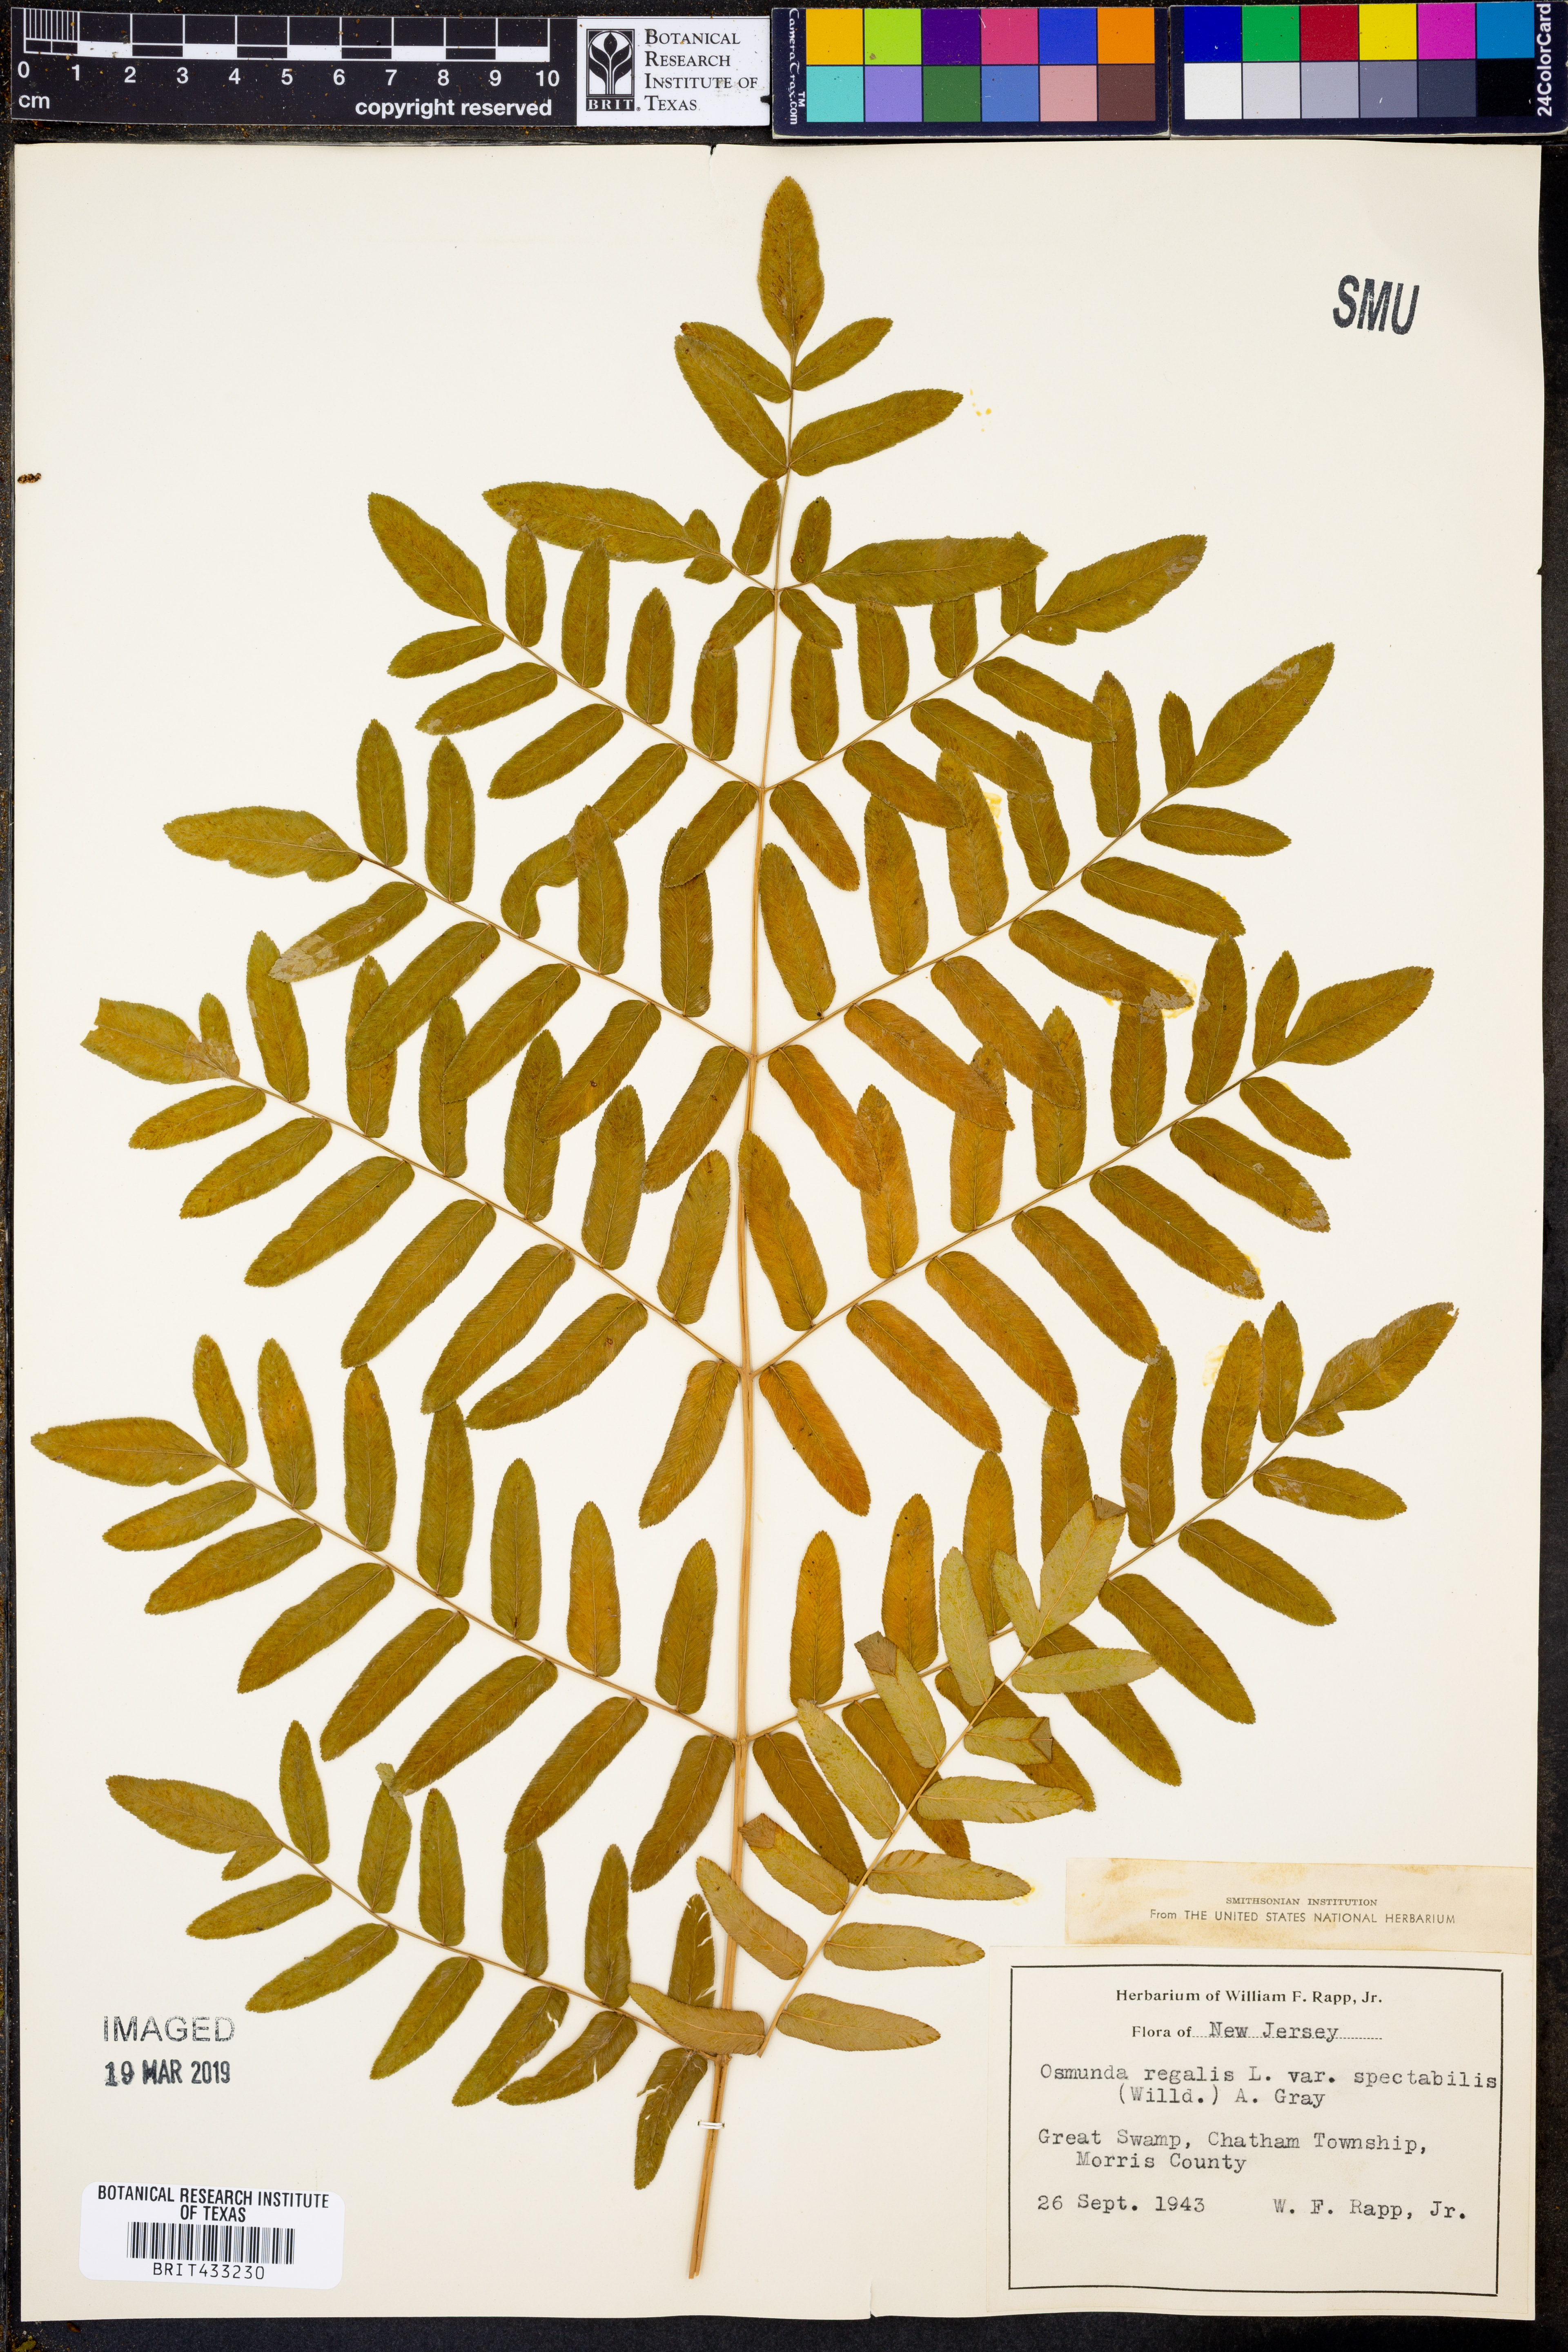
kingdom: Plantae
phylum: Tracheophyta
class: Polypodiopsida
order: Osmundales
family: Osmundaceae
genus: Osmunda
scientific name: Osmunda spectabilis
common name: American royal fern
